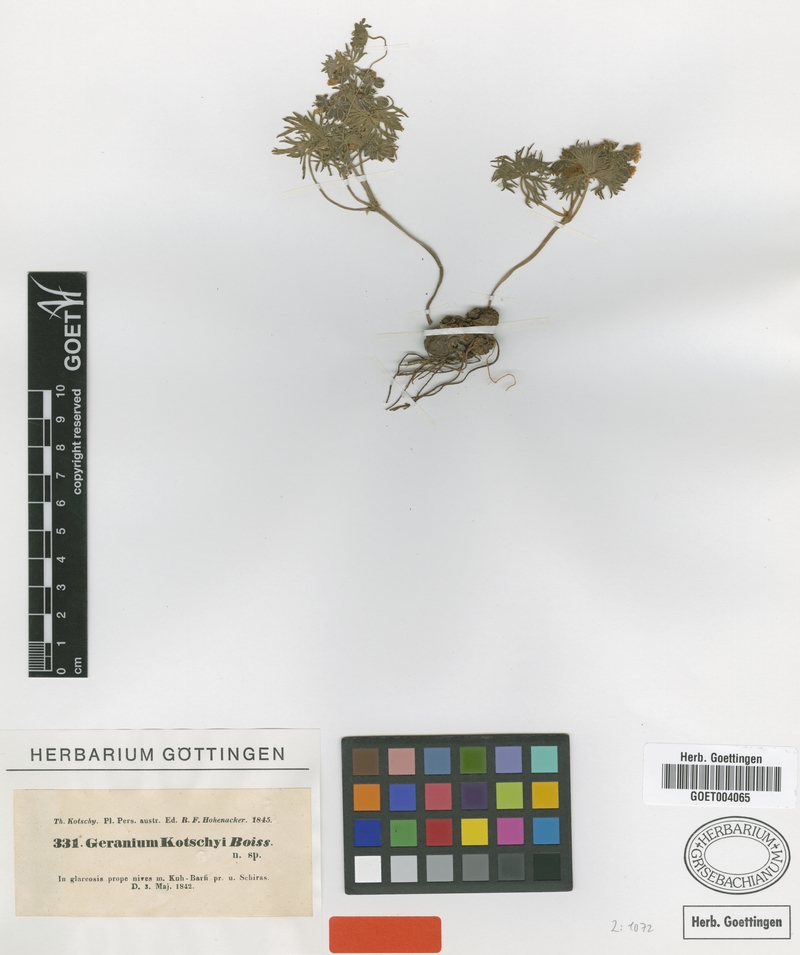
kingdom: Plantae
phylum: Tracheophyta
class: Magnoliopsida
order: Geraniales
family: Geraniaceae
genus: Geranium
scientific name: Geranium kotschyi
